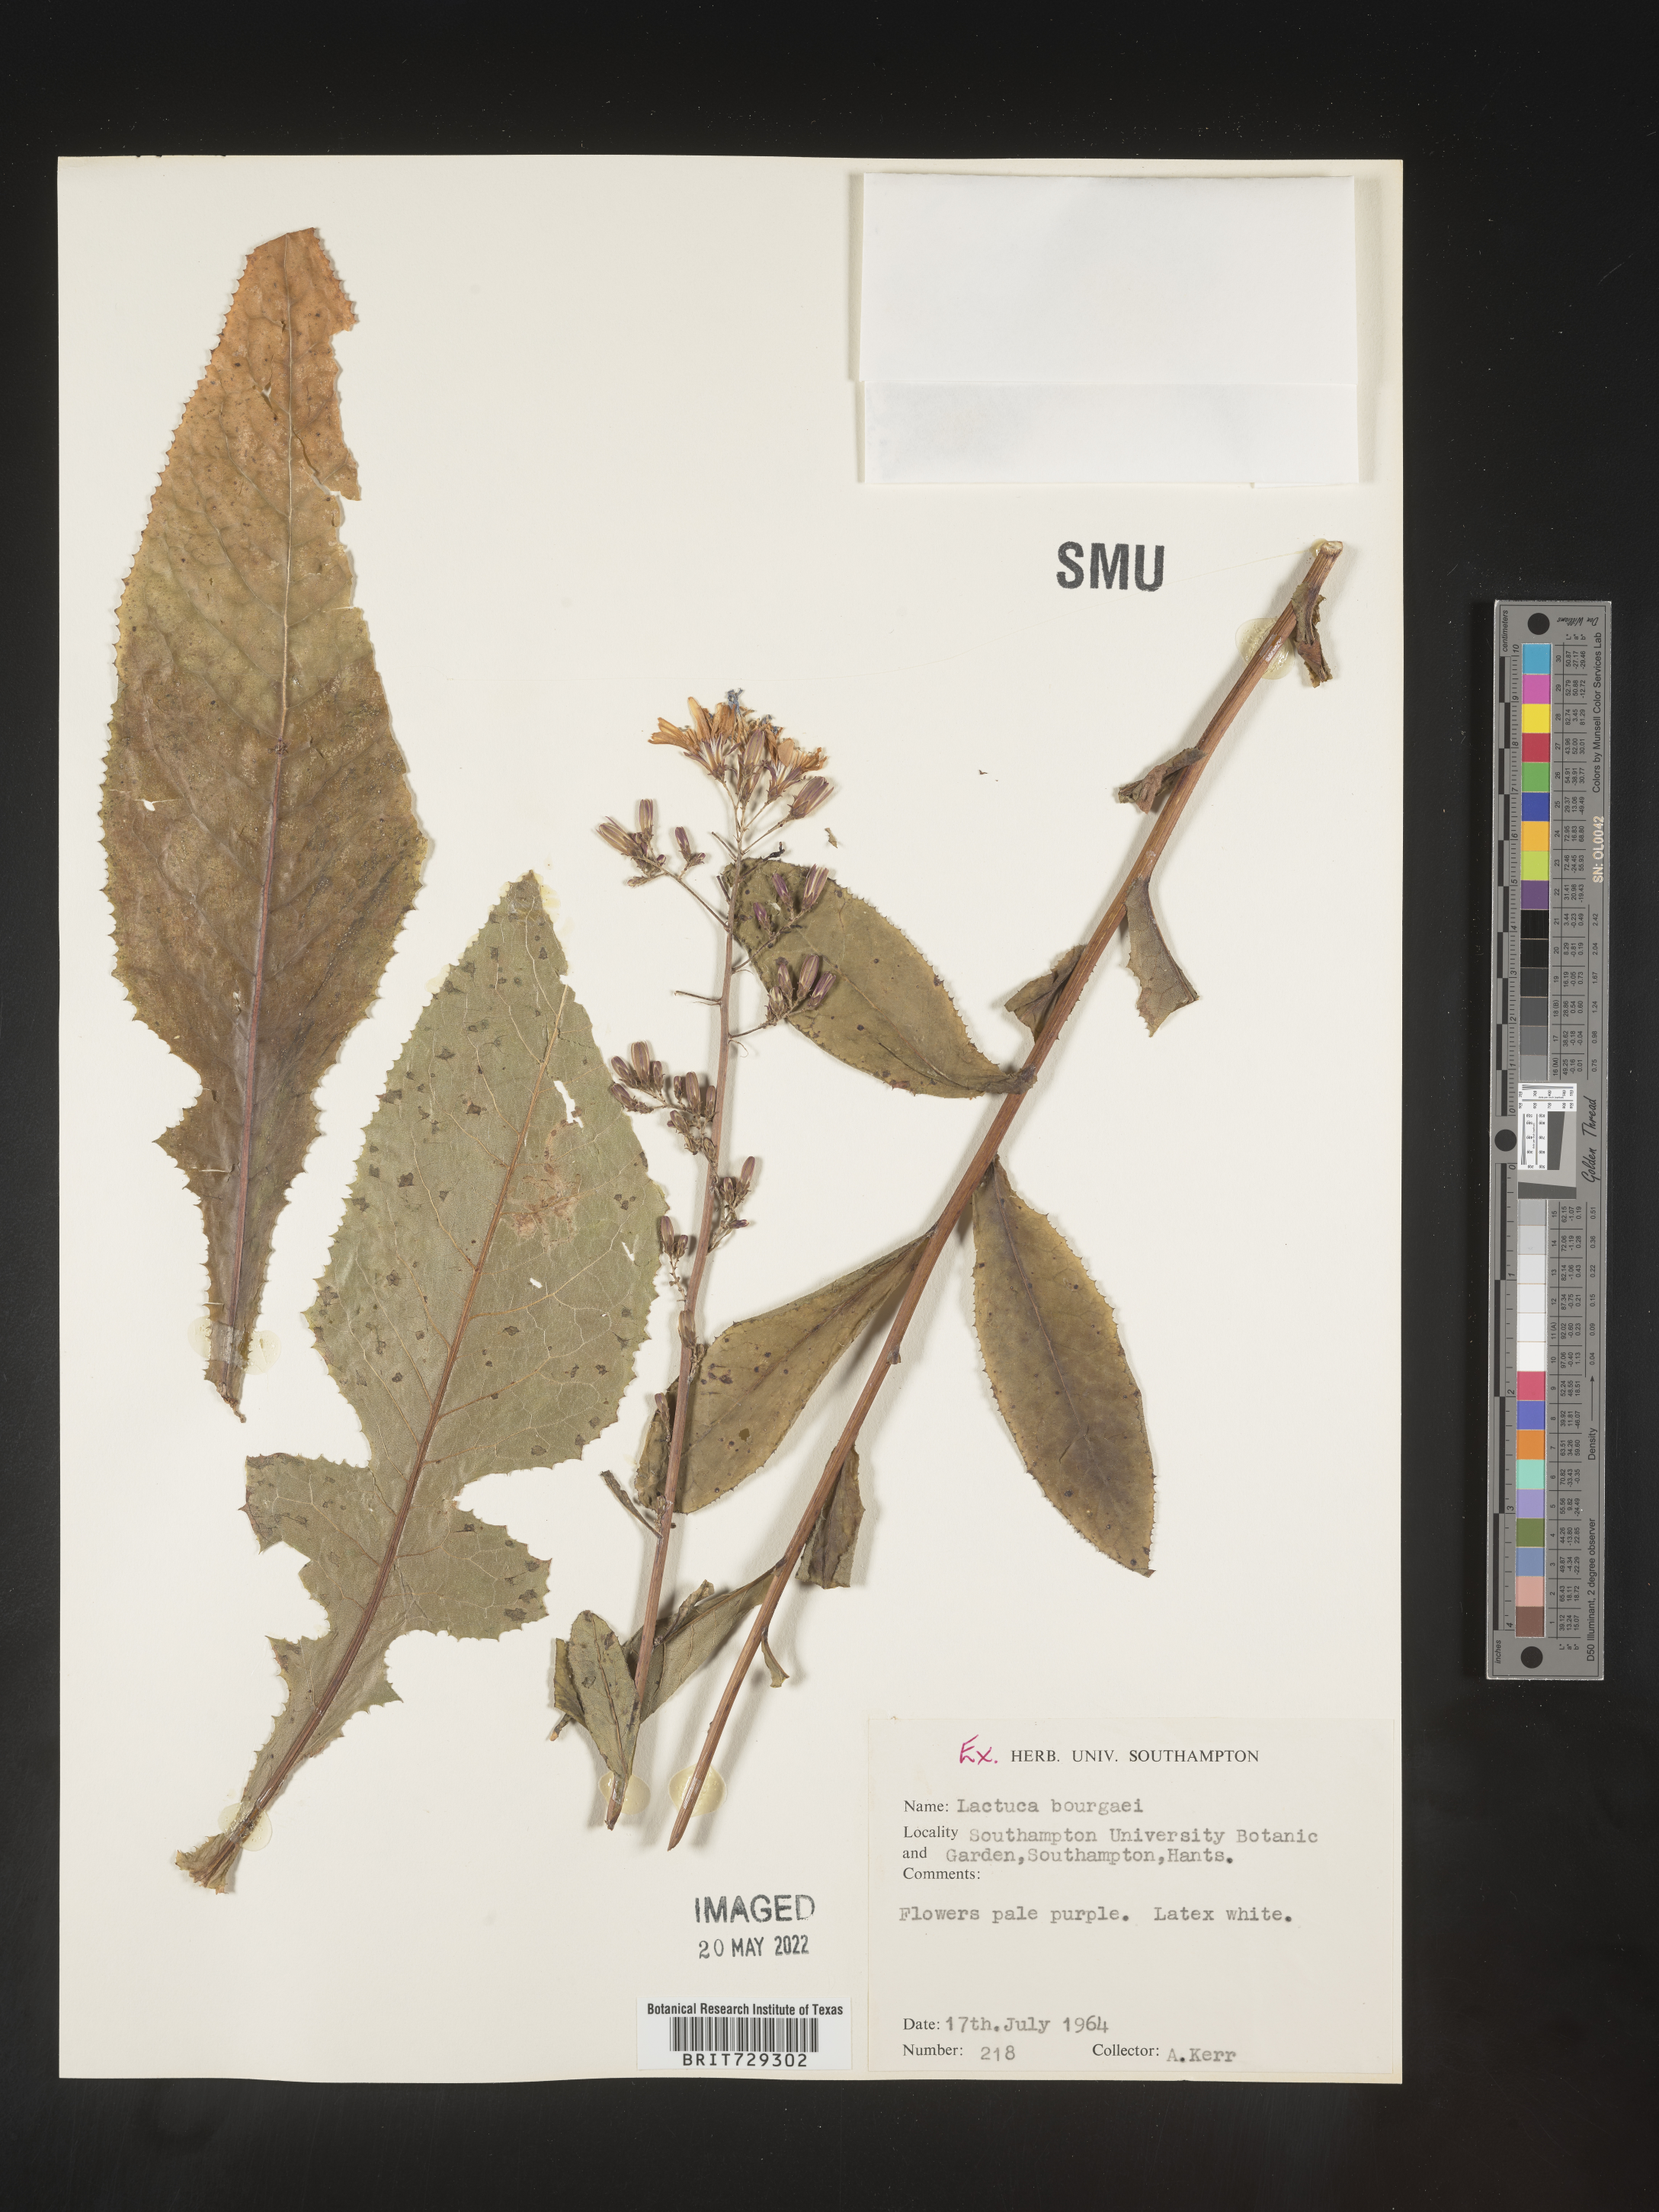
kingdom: Plantae
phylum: Tracheophyta
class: Magnoliopsida
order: Asterales
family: Asteraceae
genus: Lactuca
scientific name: Lactuca
